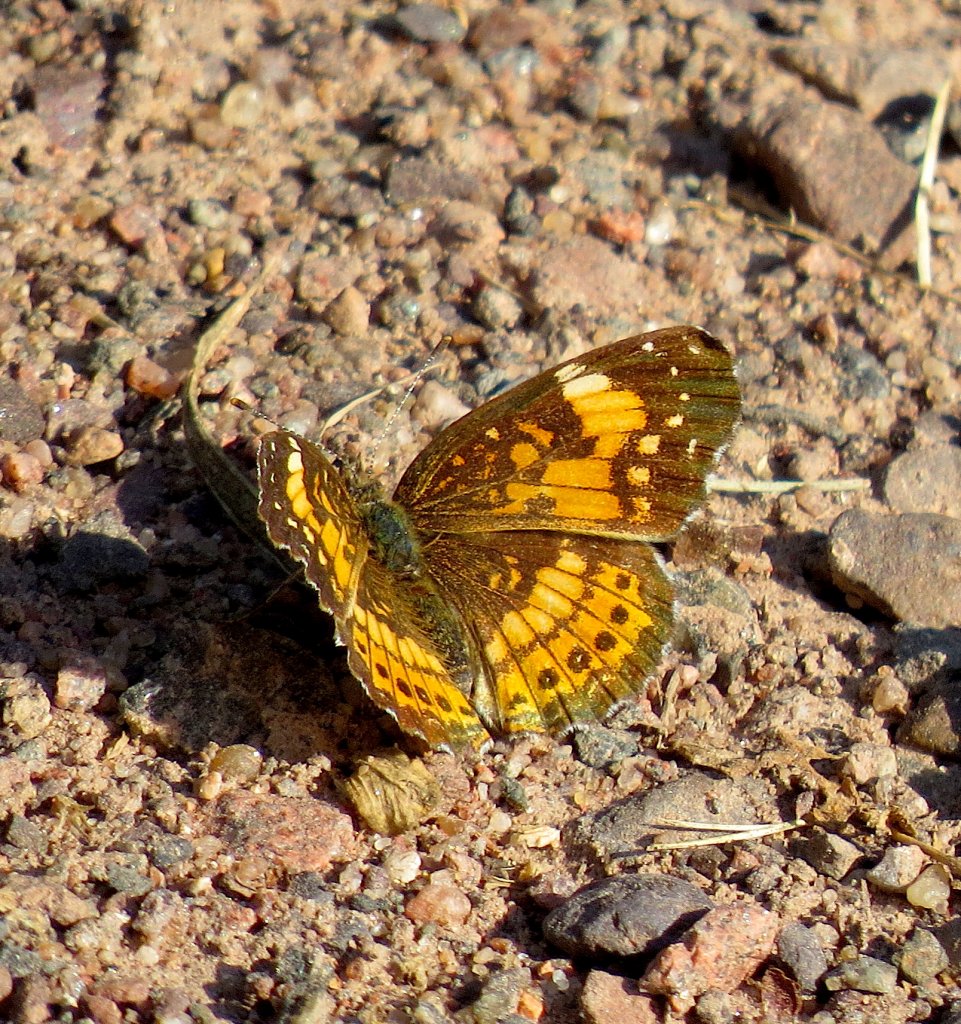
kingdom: Animalia
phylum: Arthropoda
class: Insecta
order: Lepidoptera
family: Nymphalidae
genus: Chlosyne
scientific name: Chlosyne nycteis
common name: Silvery Checkerspot
